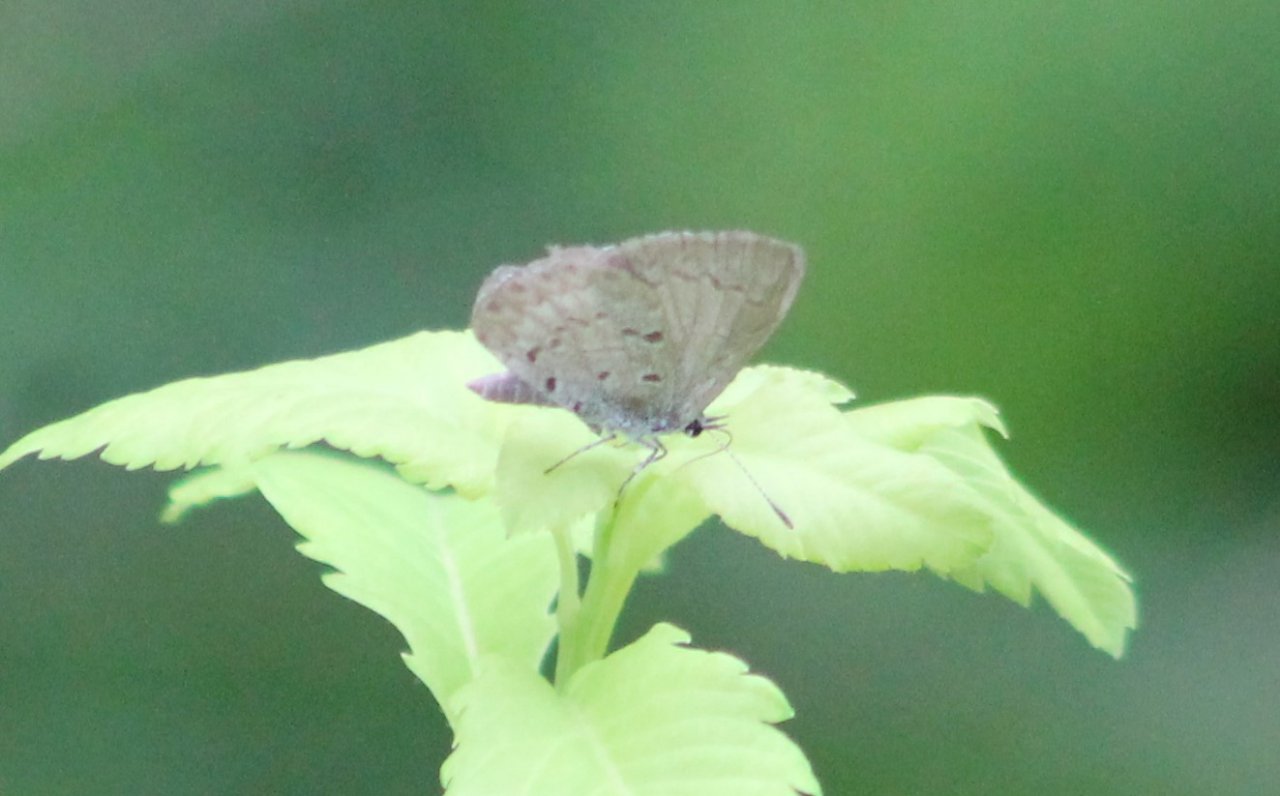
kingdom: Animalia
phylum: Arthropoda
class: Insecta
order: Lepidoptera
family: Lycaenidae
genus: Cyaniris
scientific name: Cyaniris neglecta
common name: Summer Azure
